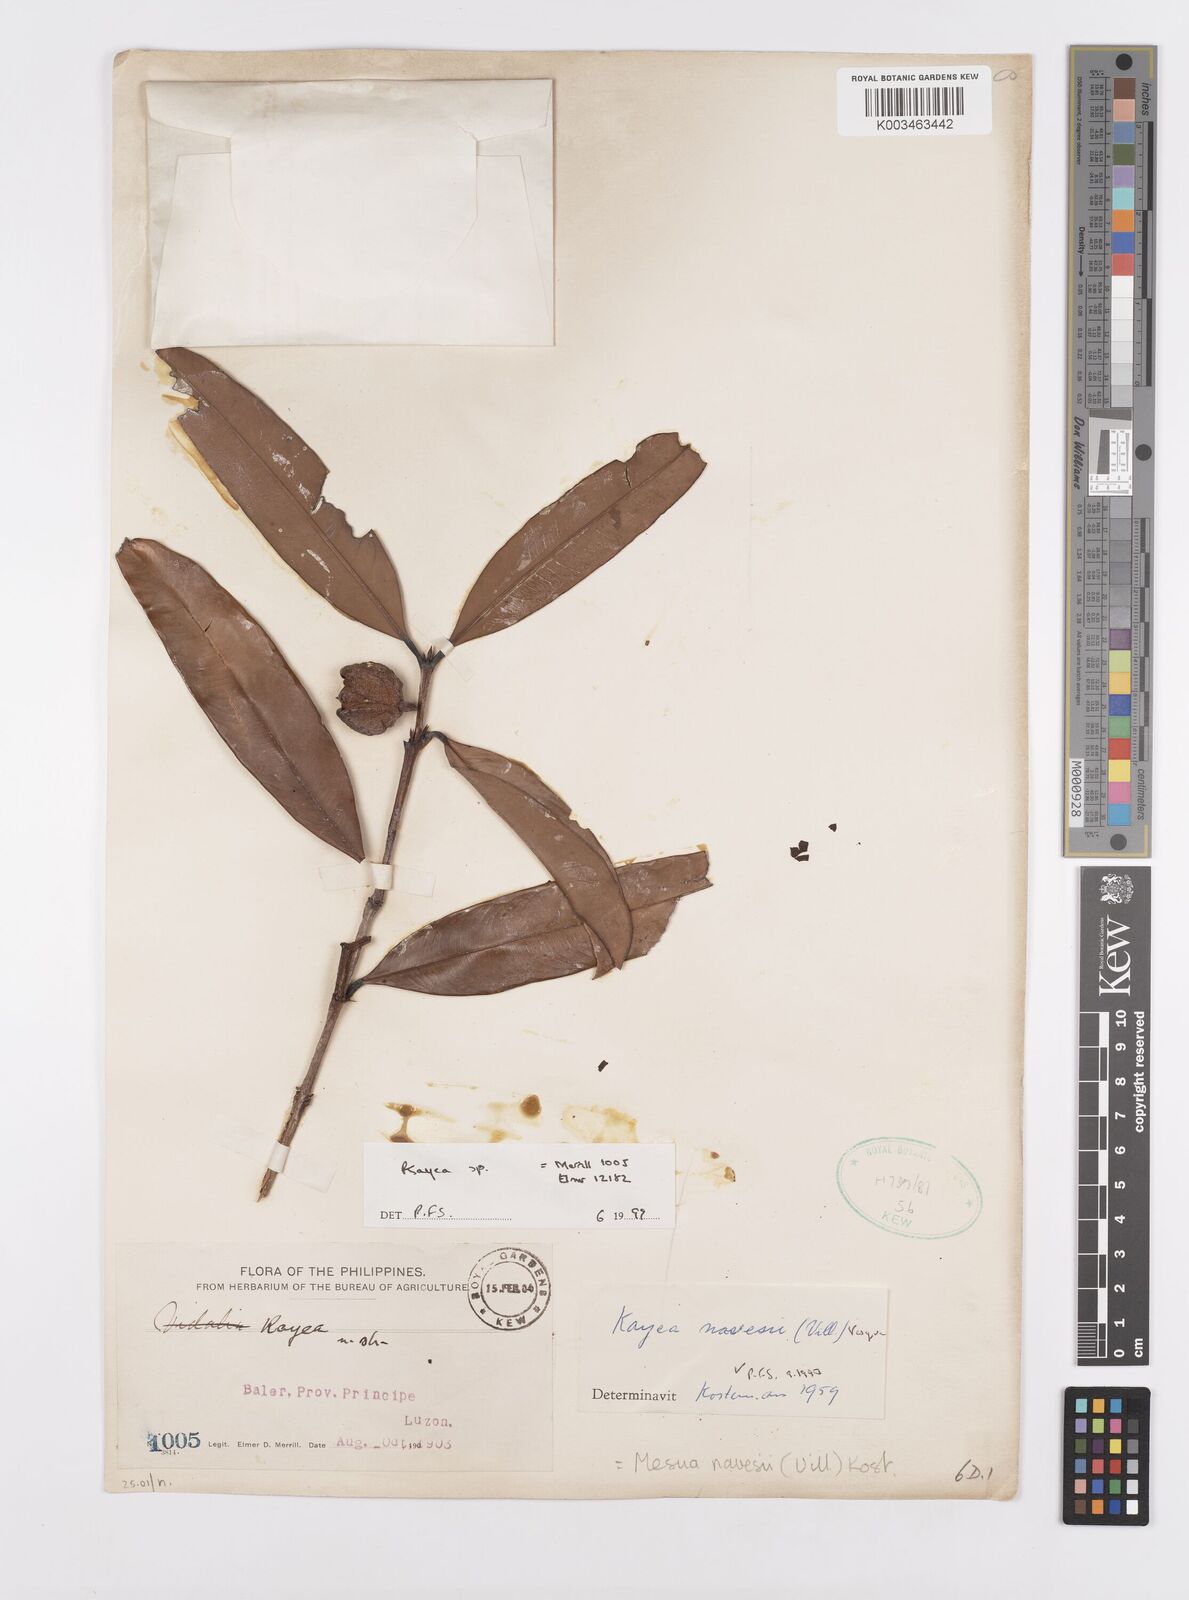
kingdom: Plantae
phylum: Tracheophyta
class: Magnoliopsida
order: Malpighiales
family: Calophyllaceae
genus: Kayea
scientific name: Kayea
